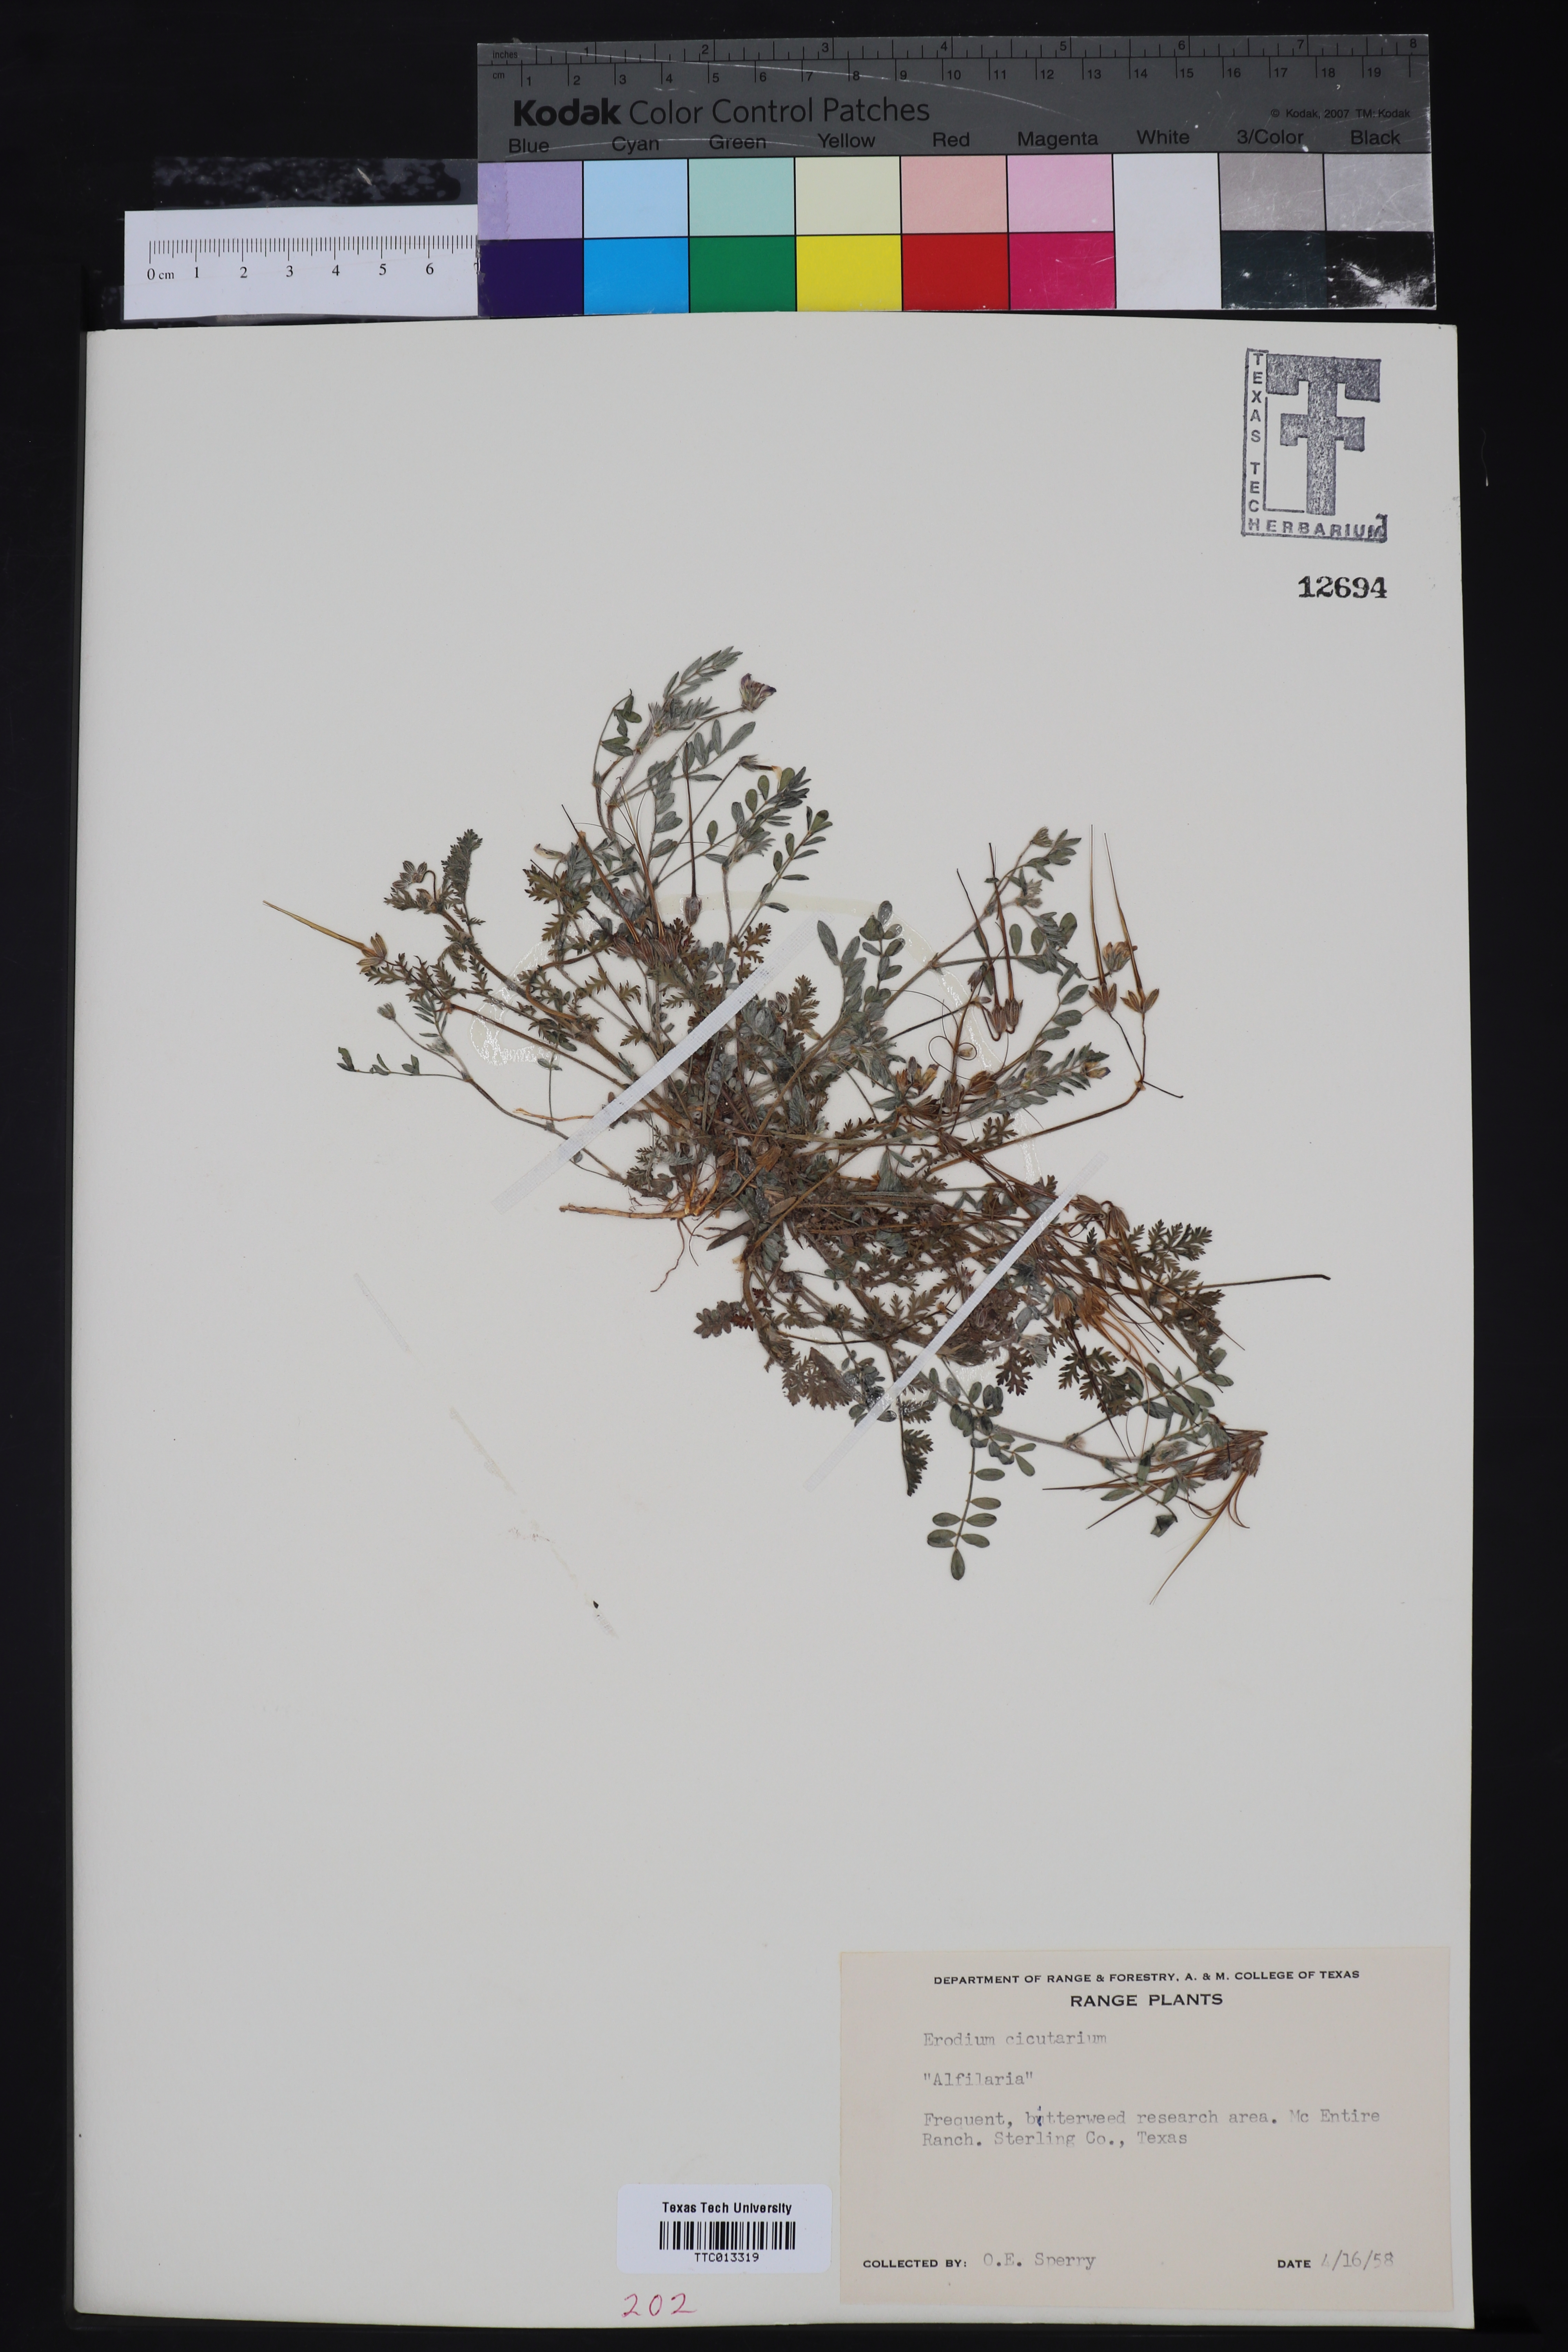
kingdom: Plantae
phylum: Tracheophyta
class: Magnoliopsida
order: Geraniales
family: Geraniaceae
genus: Erodium
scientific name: Erodium cicutarium
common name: Common stork's-bill
